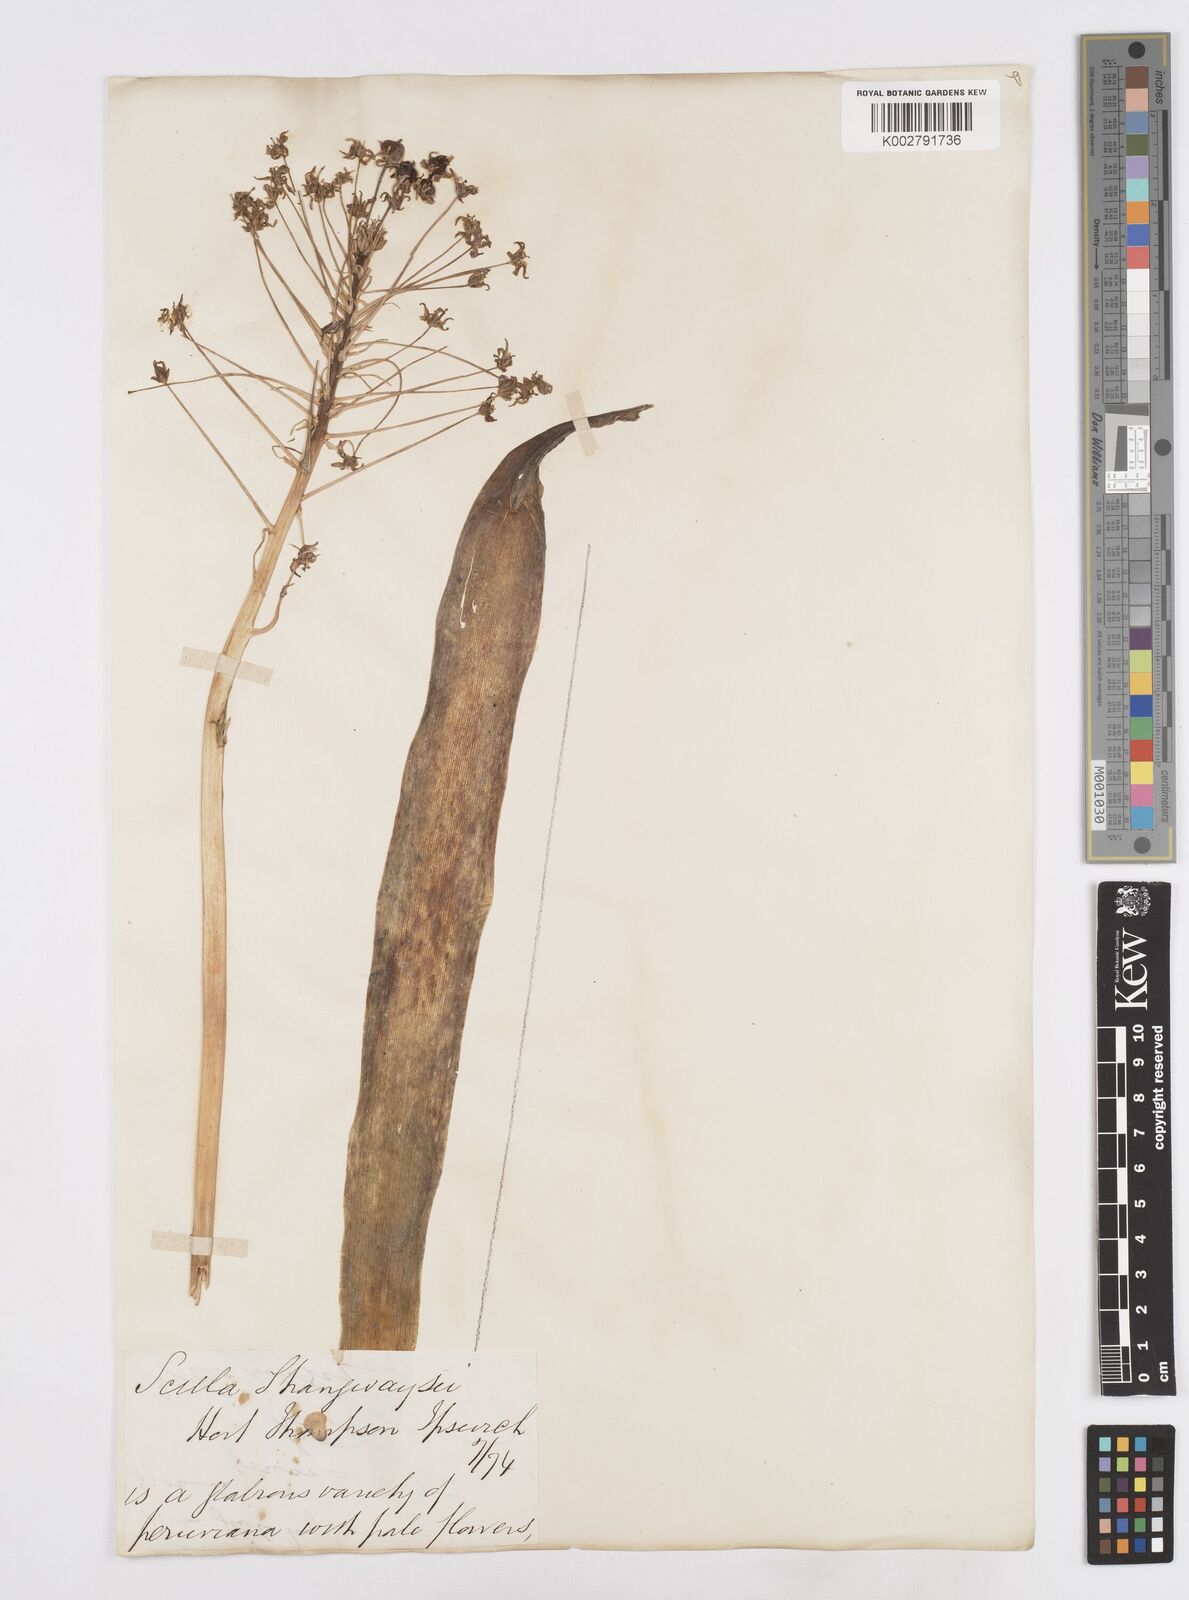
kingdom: Plantae
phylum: Tracheophyta
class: Liliopsida
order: Asparagales
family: Asparagaceae
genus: Scilla
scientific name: Scilla peruviana
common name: Portuguese squill
